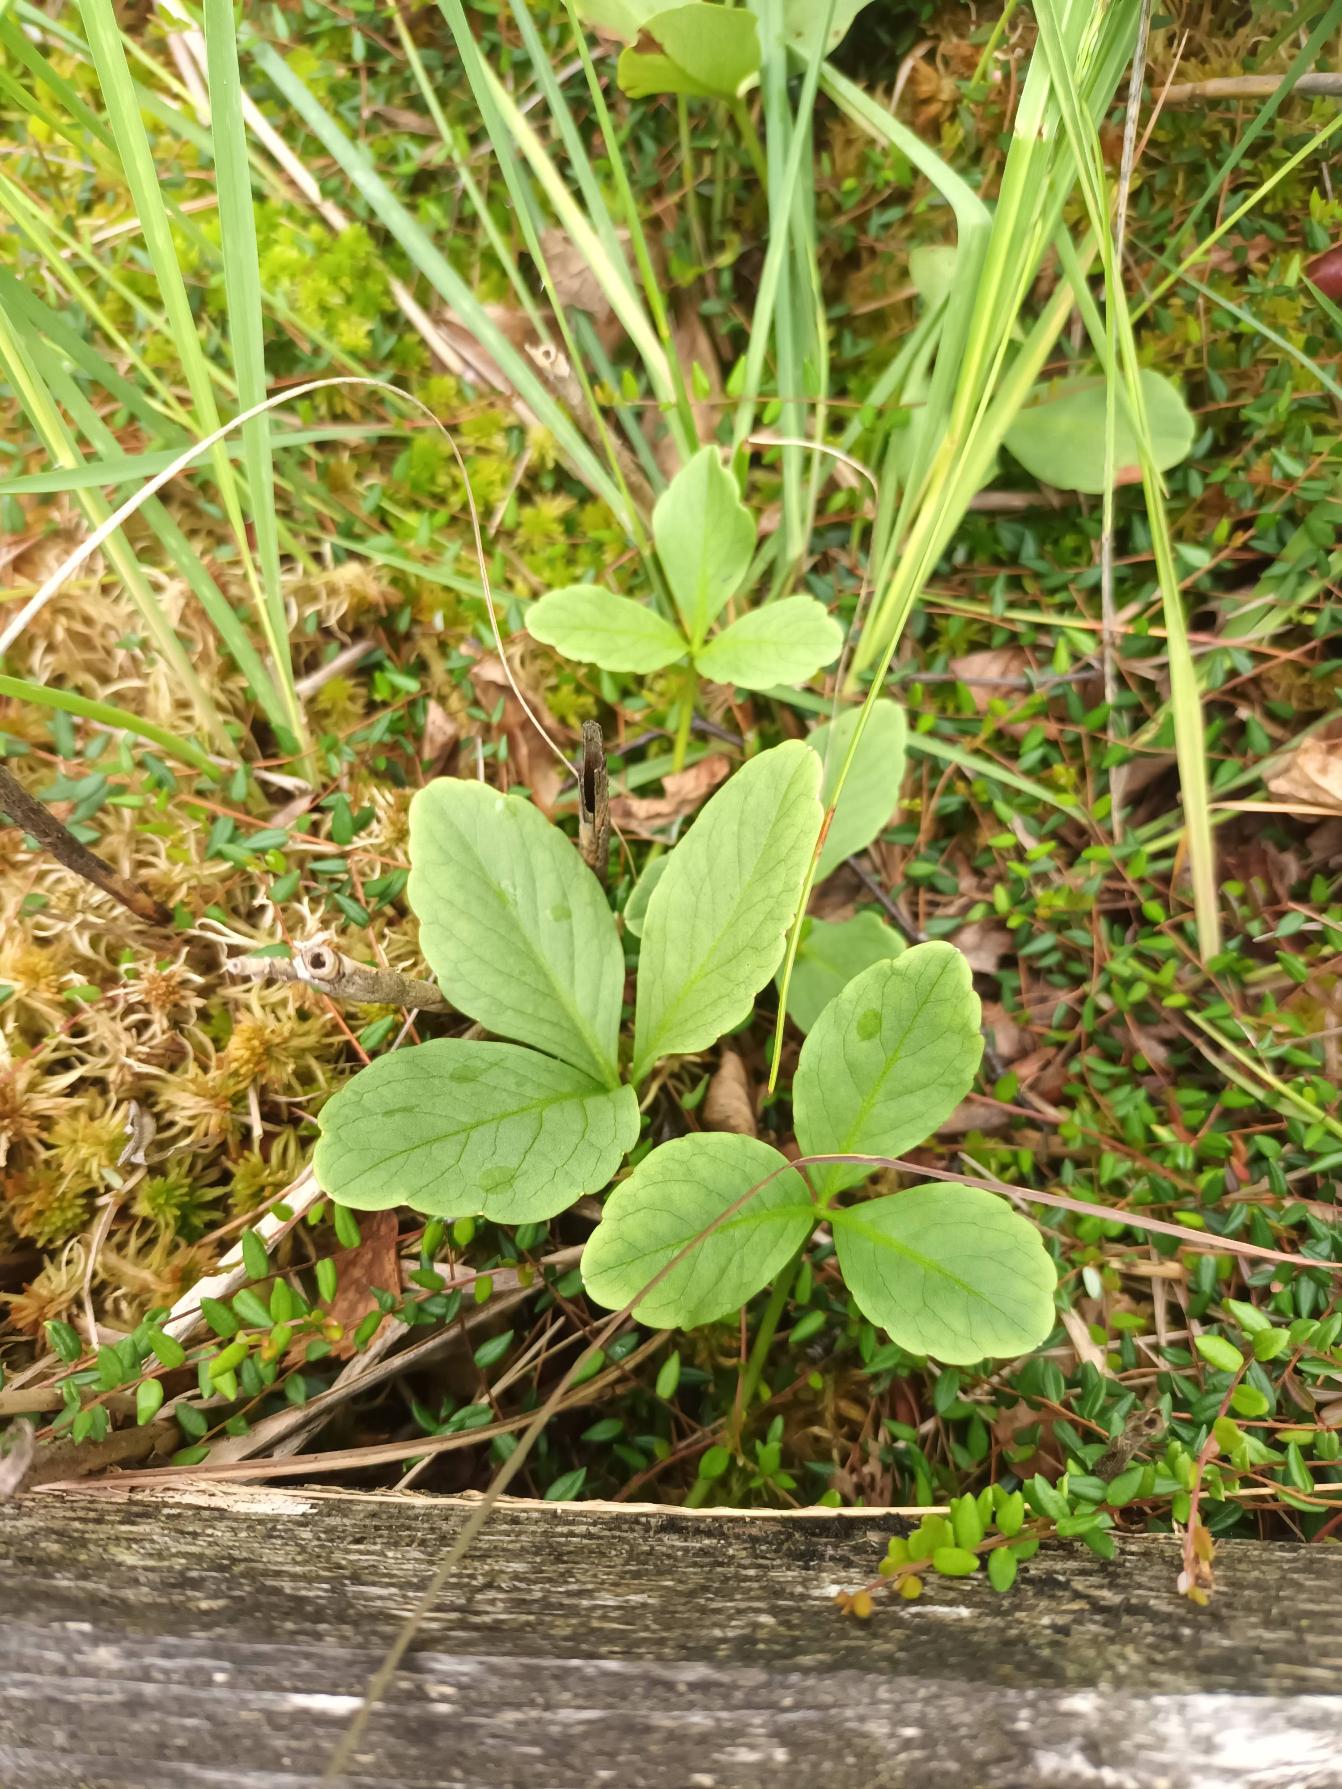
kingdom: Plantae
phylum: Tracheophyta
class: Magnoliopsida
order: Asterales
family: Menyanthaceae
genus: Menyanthes
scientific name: Menyanthes trifoliata
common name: Bukkeblad
